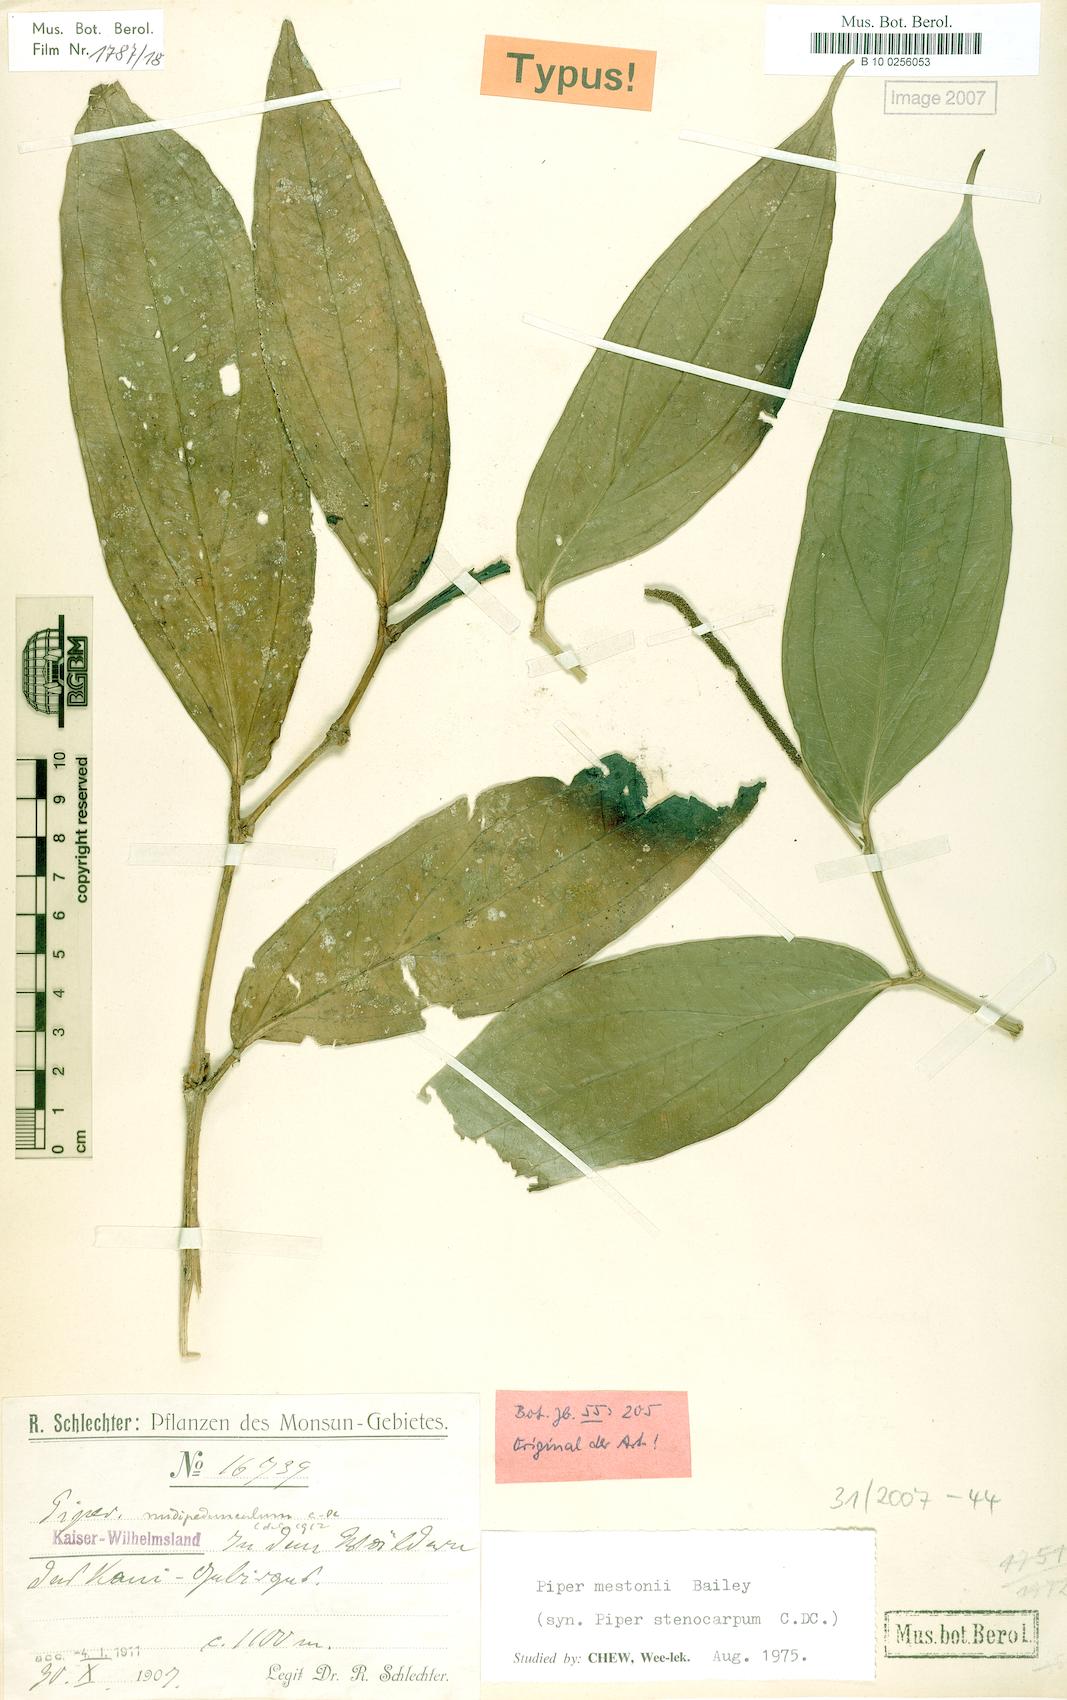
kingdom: Plantae
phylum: Tracheophyta
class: Magnoliopsida
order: Piperales
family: Piperaceae
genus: Piper
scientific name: Piper mestonii
